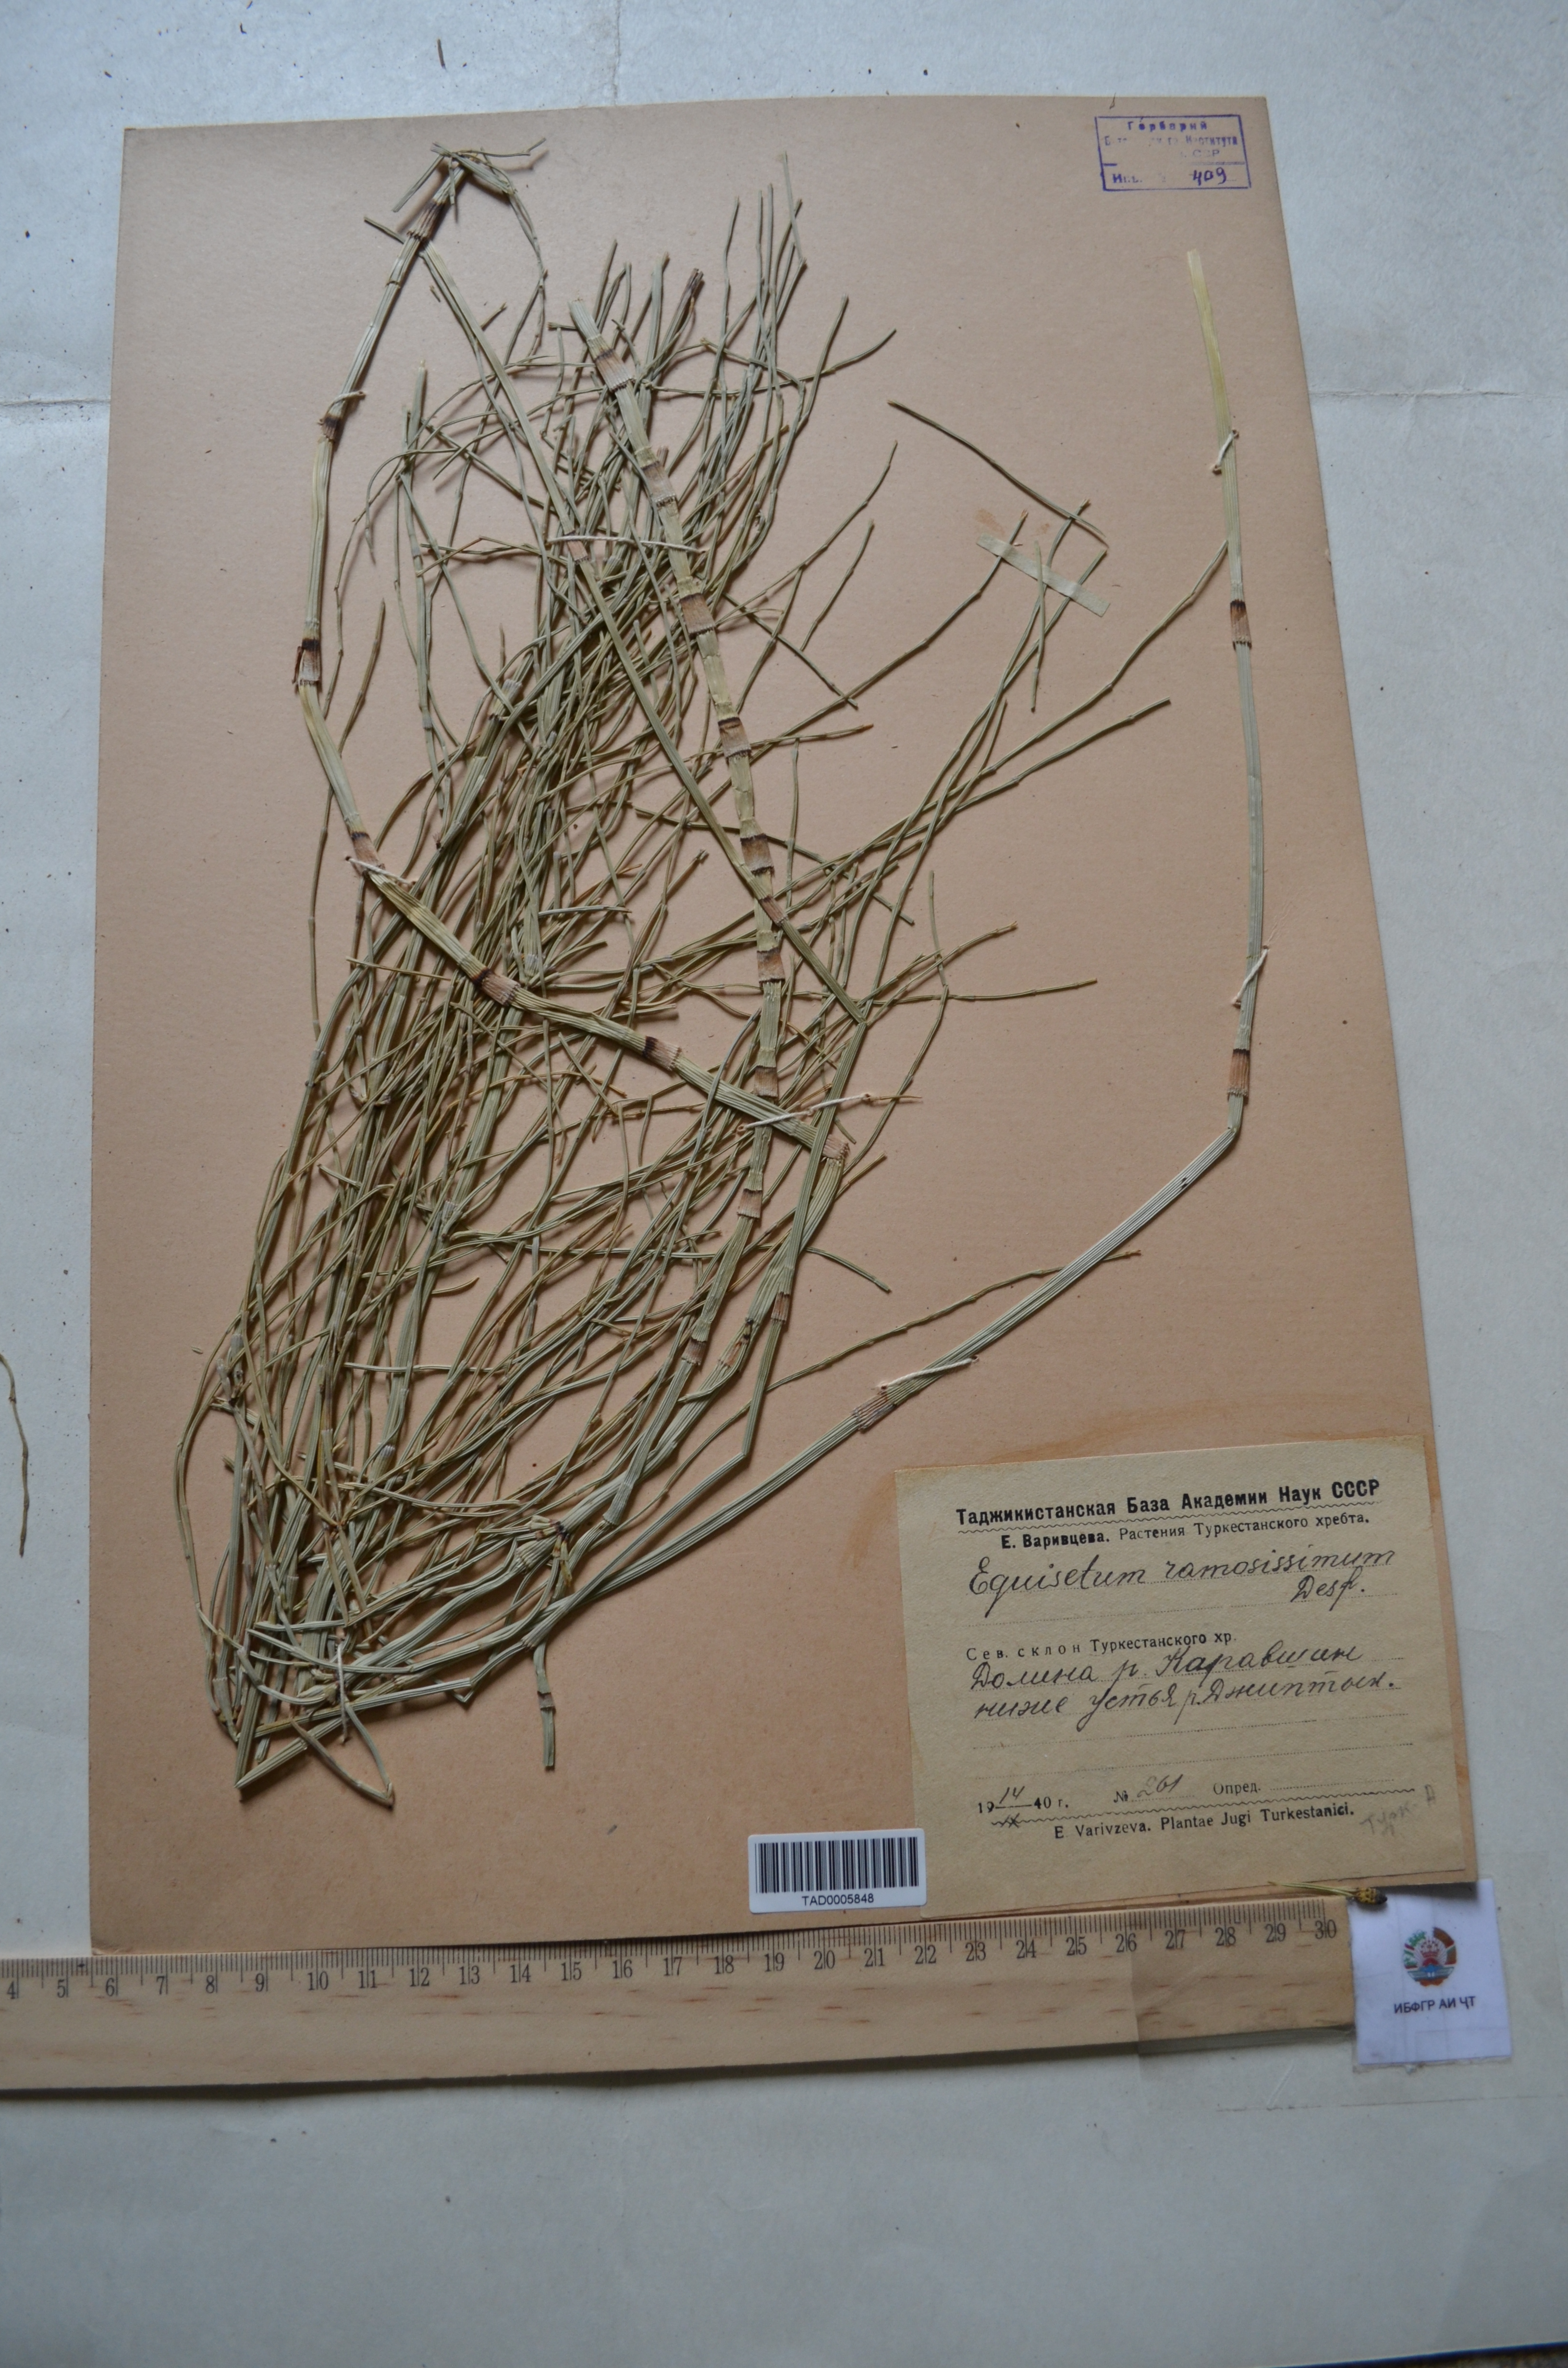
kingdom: Plantae
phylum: Tracheophyta
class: Polypodiopsida
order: Equisetales
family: Equisetaceae
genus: Equisetum
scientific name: Equisetum ramosissimum
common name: Branched horsetail
